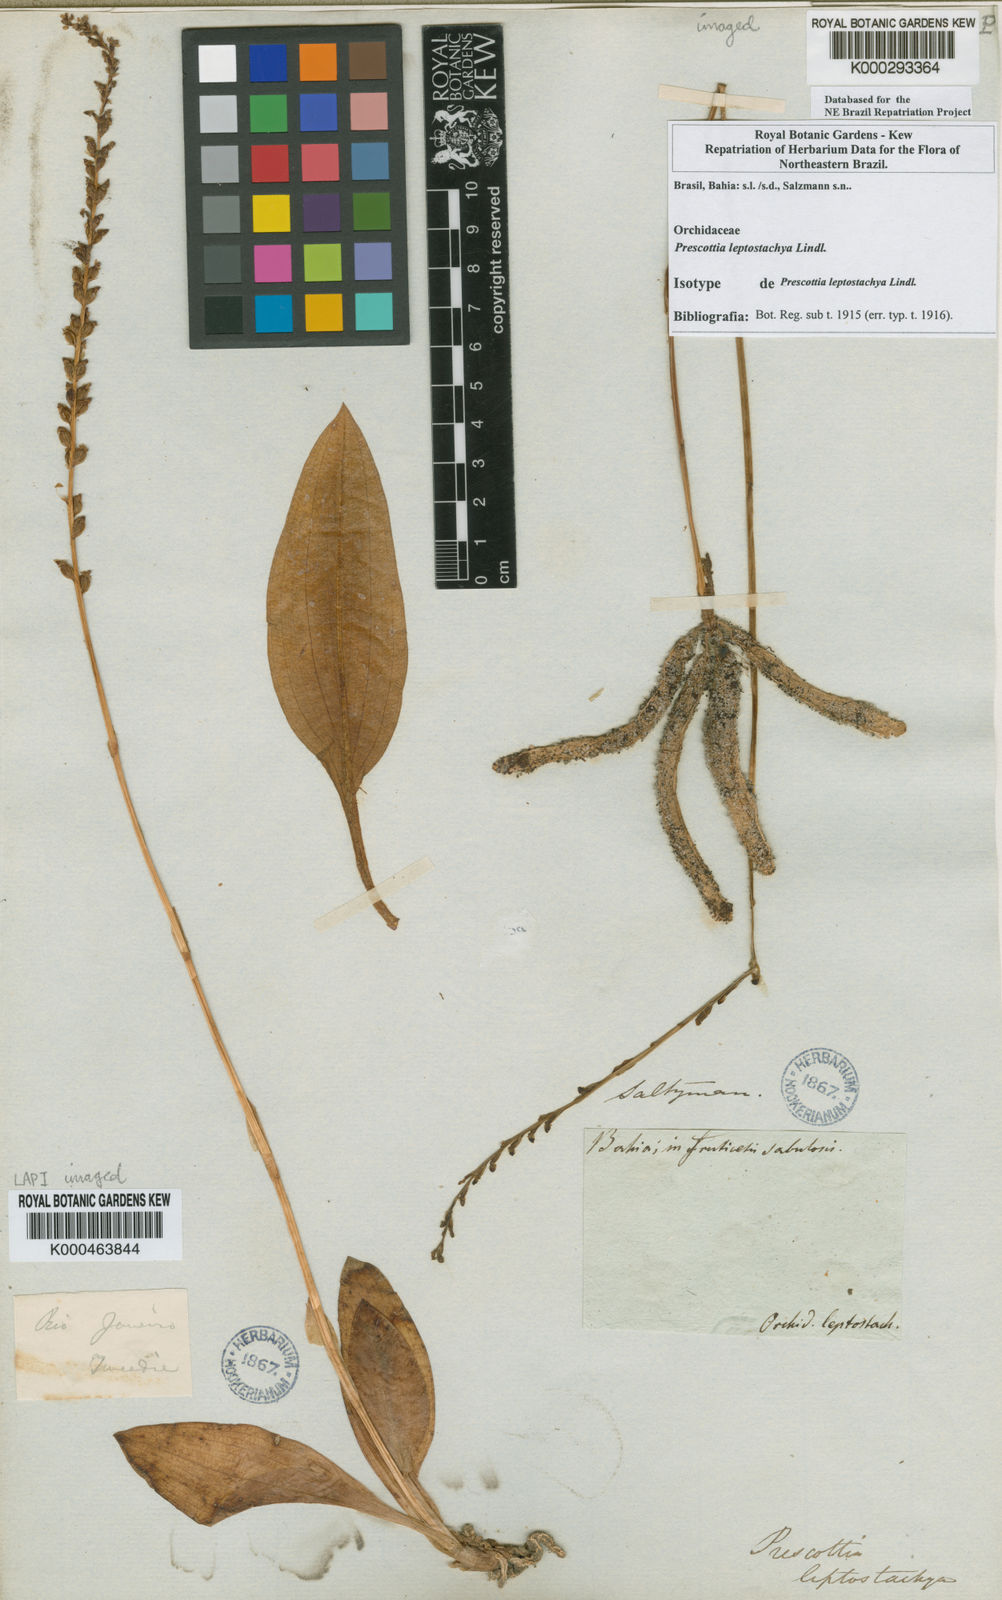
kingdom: Plantae
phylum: Tracheophyta
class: Liliopsida
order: Asparagales
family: Orchidaceae
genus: Prescottia
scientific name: Prescottia leptostachya
